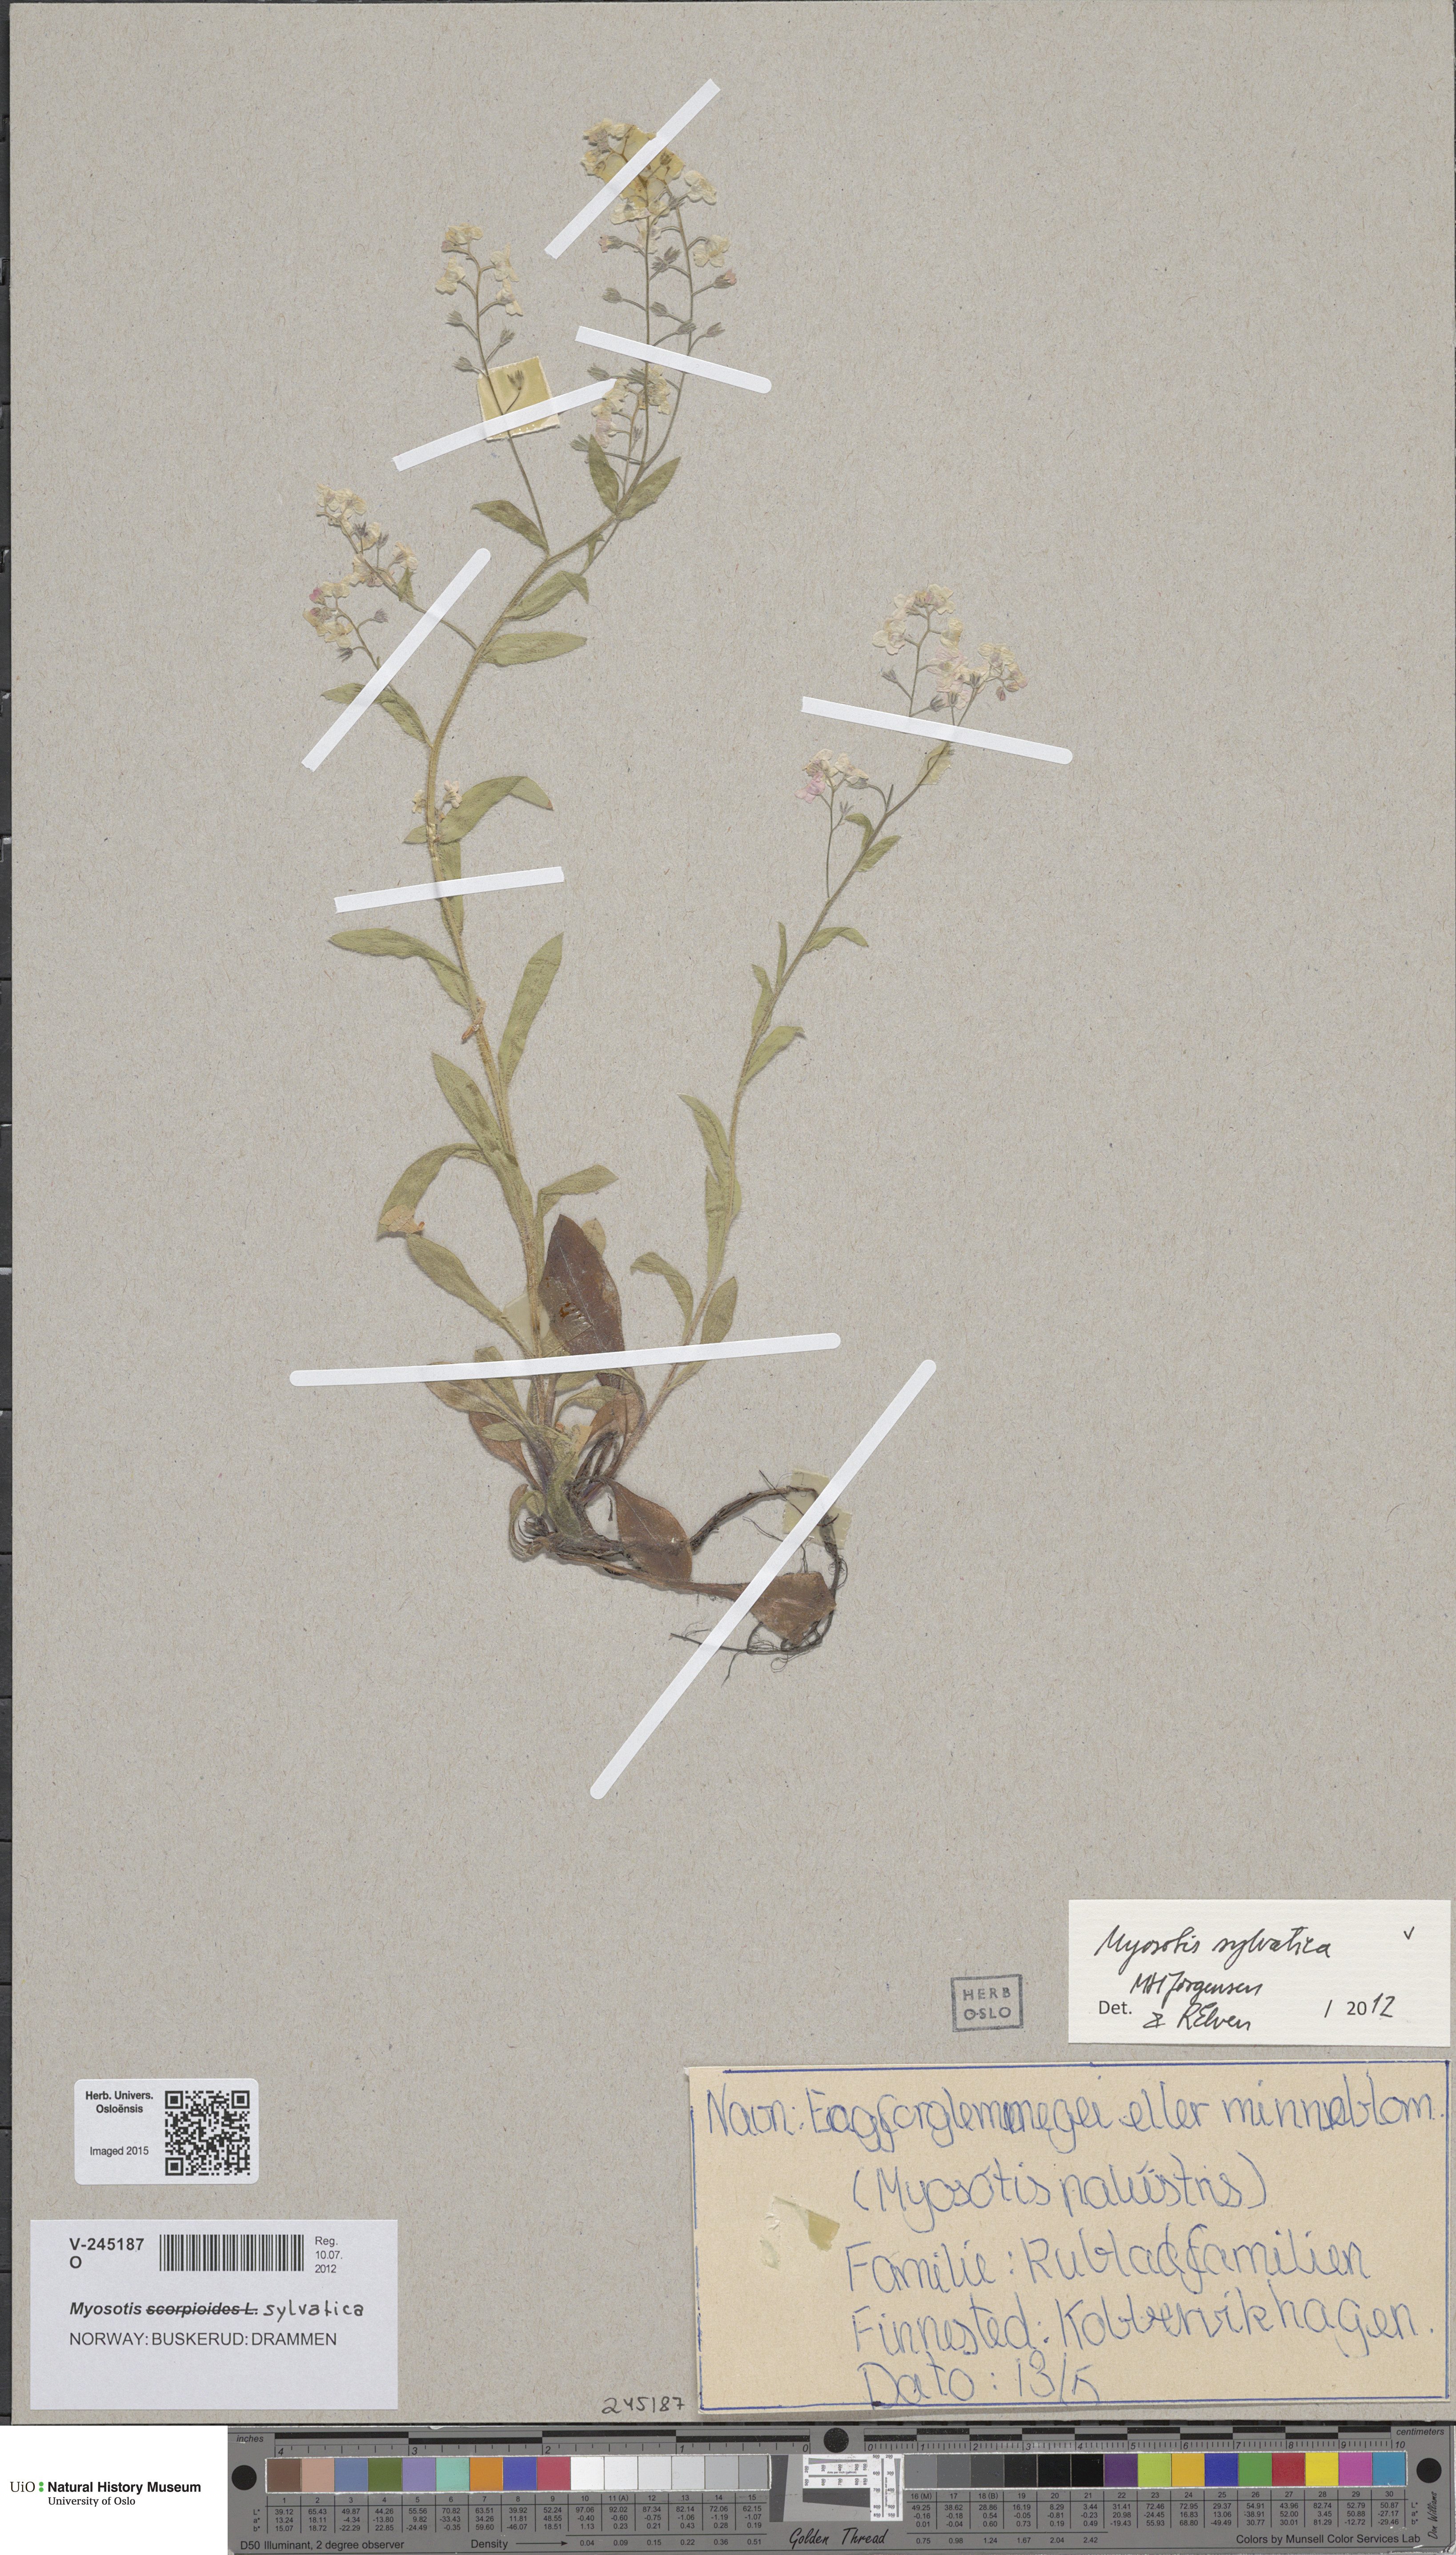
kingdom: Plantae
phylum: Tracheophyta
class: Magnoliopsida
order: Boraginales
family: Boraginaceae
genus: Myosotis
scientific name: Myosotis sylvatica
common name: Wood forget-me-not
